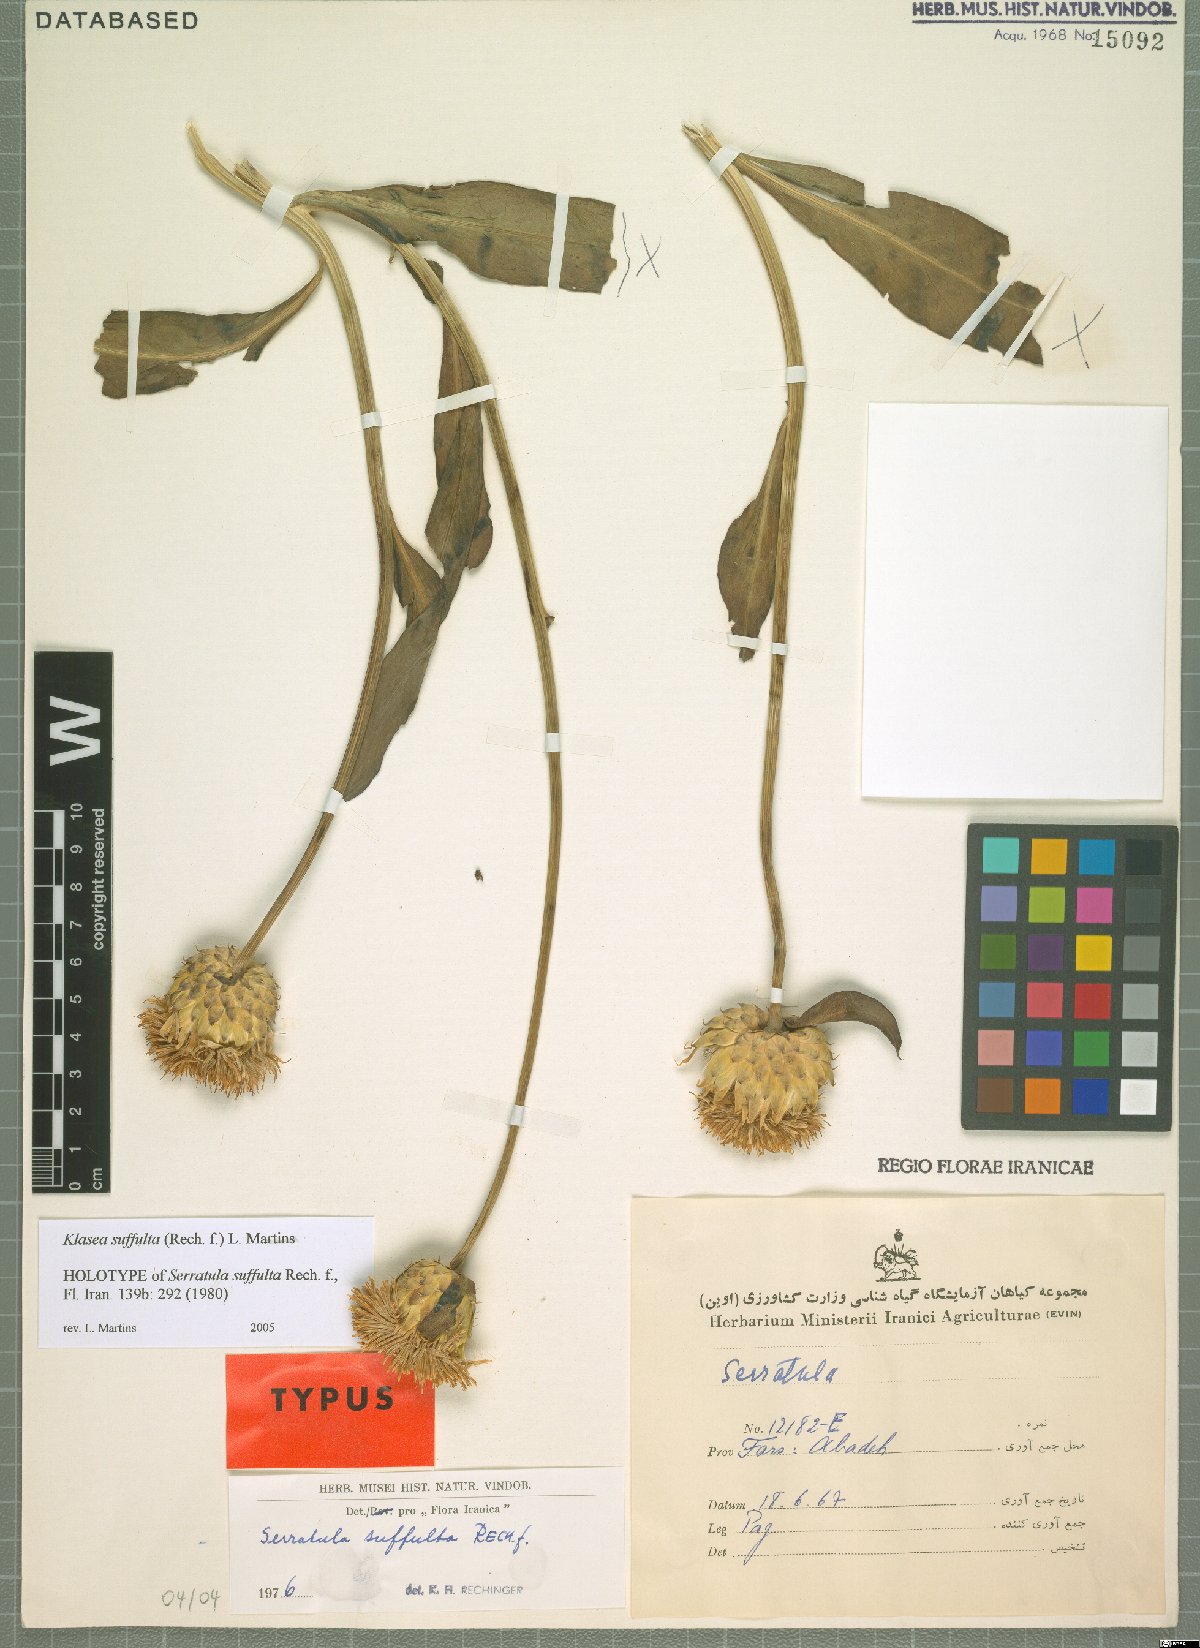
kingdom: Plantae
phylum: Tracheophyta
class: Magnoliopsida
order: Asterales
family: Asteraceae
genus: Klasea
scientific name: Klasea suffulta
